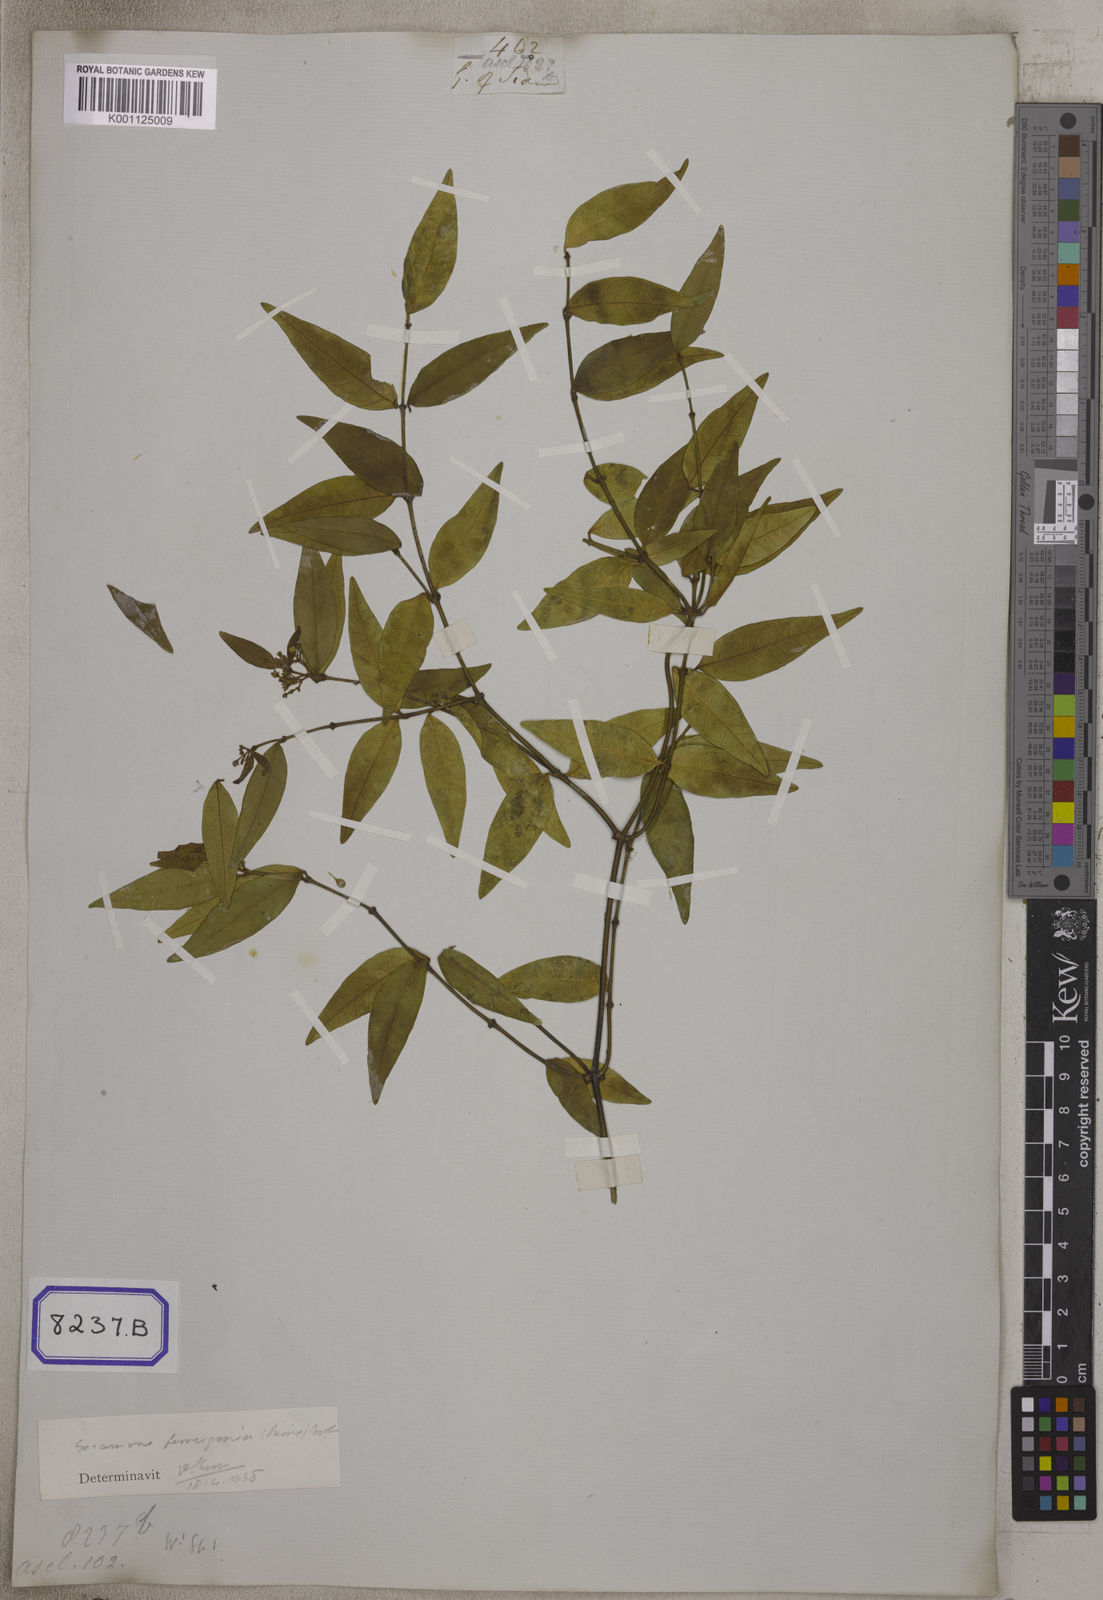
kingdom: Plantae
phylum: Tracheophyta
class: Magnoliopsida
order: Gentianales
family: Apocynaceae
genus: Secamone
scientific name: Secamone elliptica
